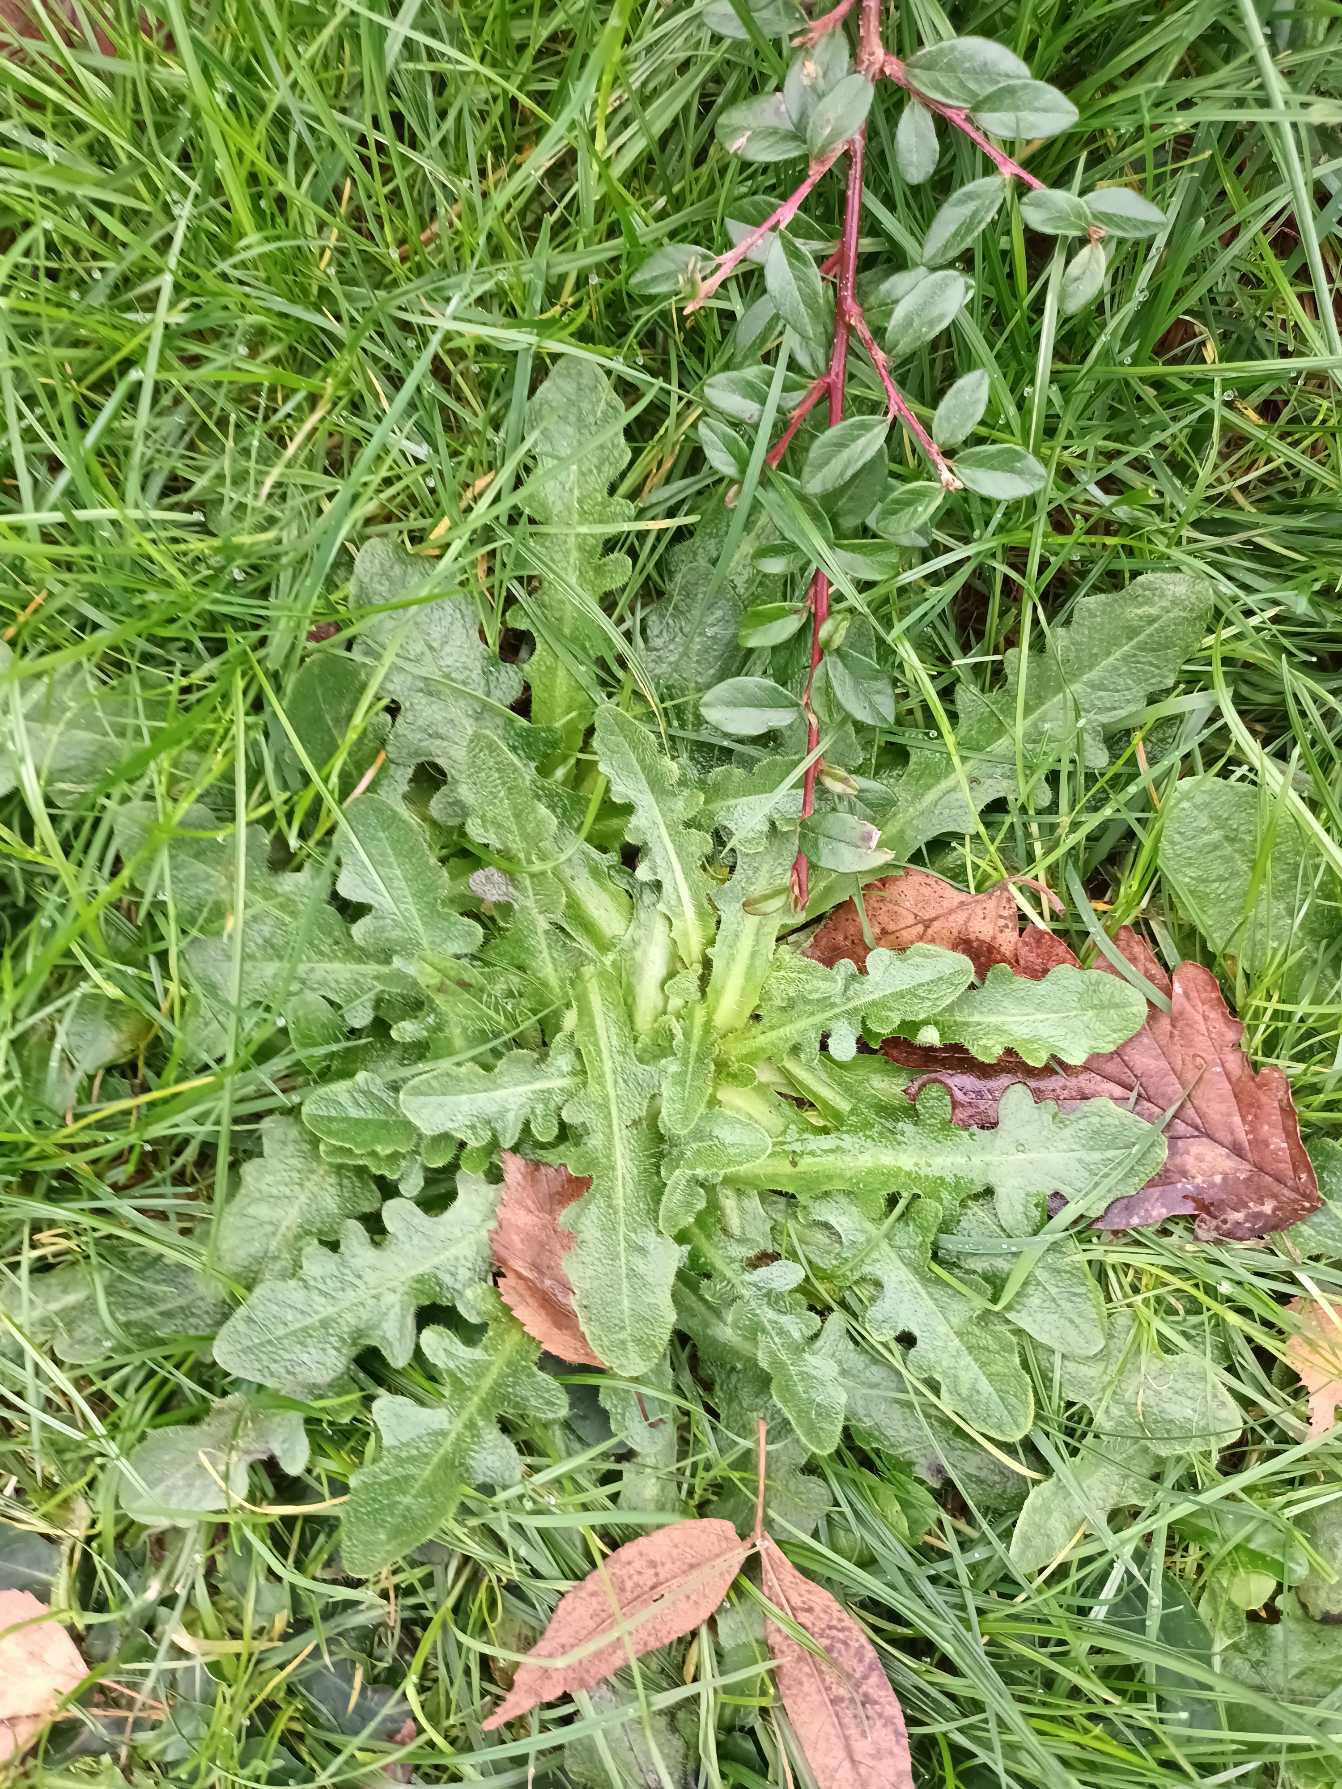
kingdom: Plantae
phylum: Tracheophyta
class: Magnoliopsida
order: Asterales
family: Asteraceae
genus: Hypochaeris
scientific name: Hypochaeris radicata
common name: Almindelig kongepen
